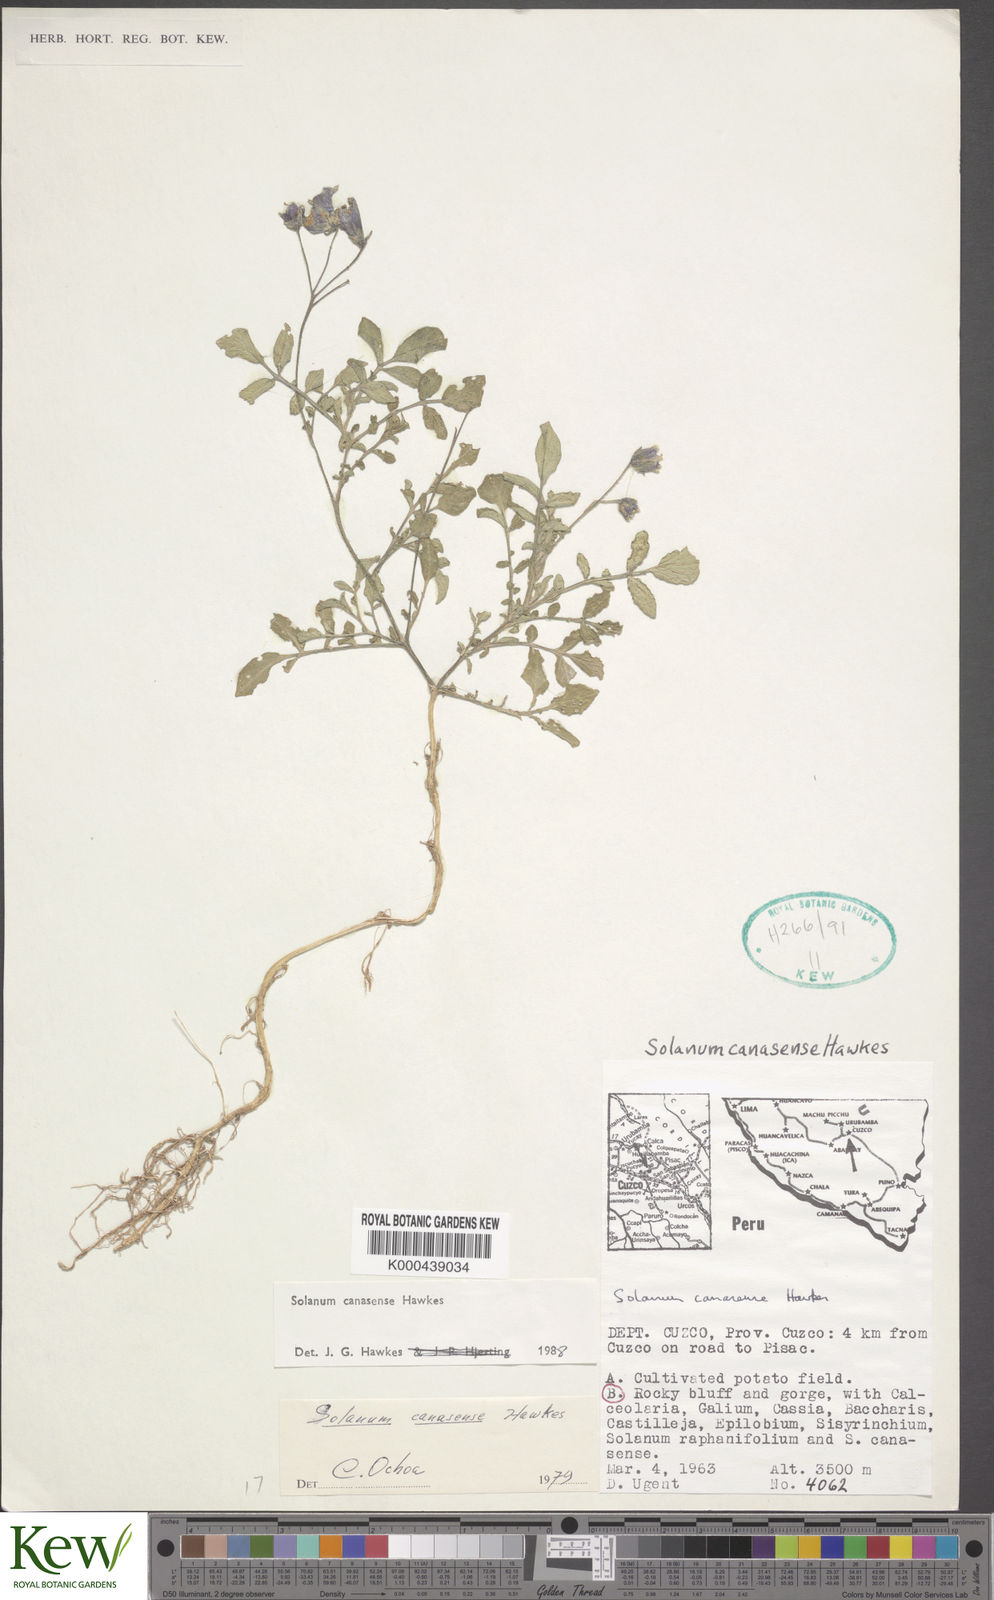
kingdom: Plantae
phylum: Tracheophyta
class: Magnoliopsida
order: Solanales
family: Solanaceae
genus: Solanum
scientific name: Solanum candolleanum
